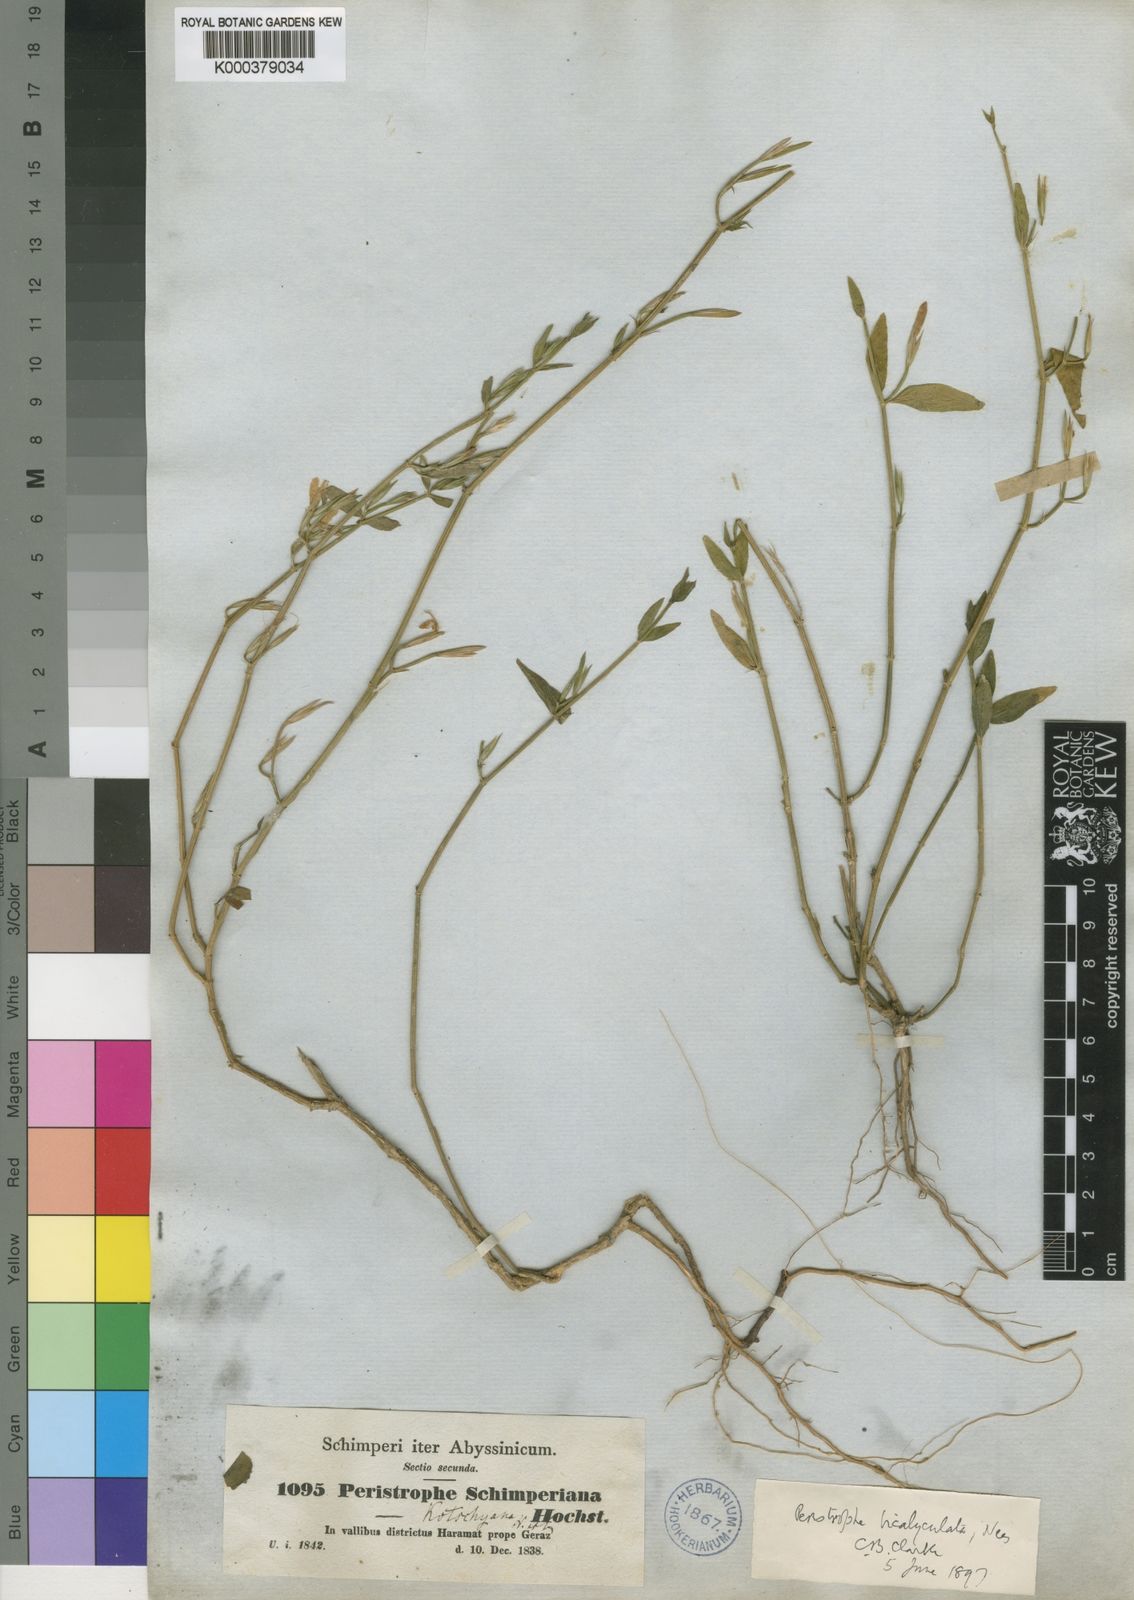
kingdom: Plantae
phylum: Tracheophyta
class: Magnoliopsida
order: Lamiales
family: Acanthaceae
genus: Dicliptera
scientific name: Dicliptera teklei
